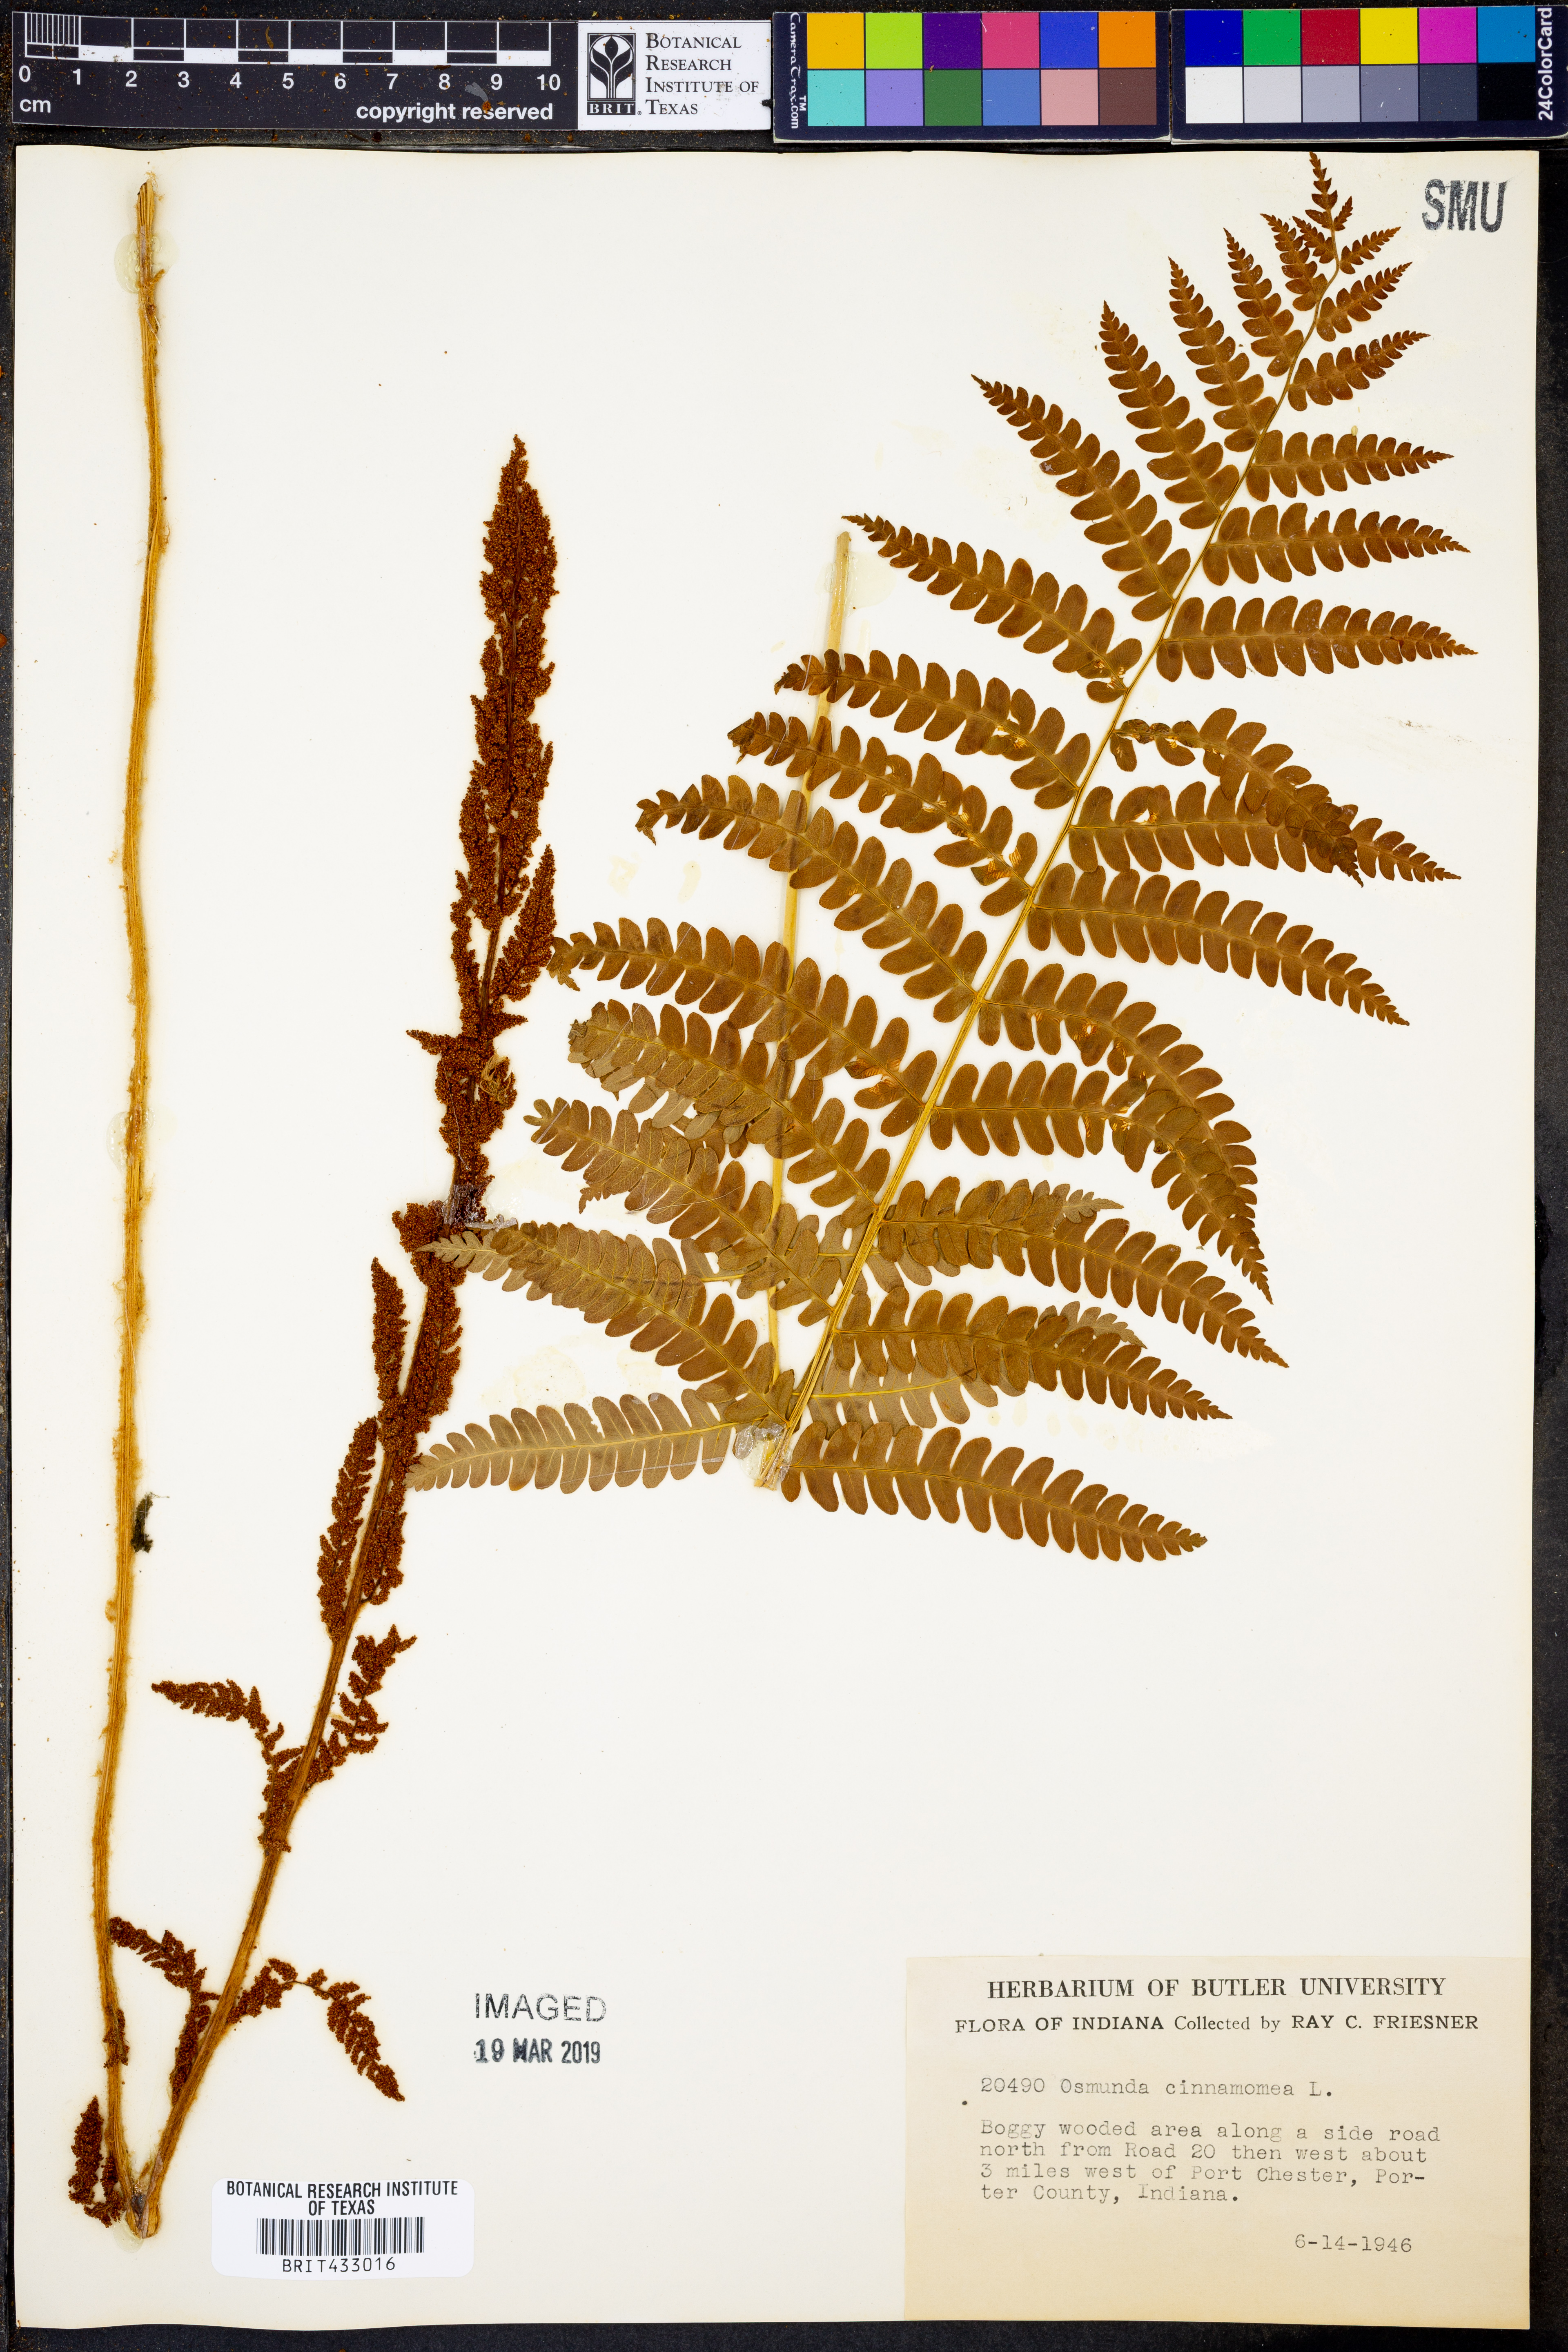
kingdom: Plantae
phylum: Tracheophyta
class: Polypodiopsida
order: Osmundales
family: Osmundaceae
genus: Osmundastrum
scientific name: Osmundastrum cinnamomeum
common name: Cinnamon fern
